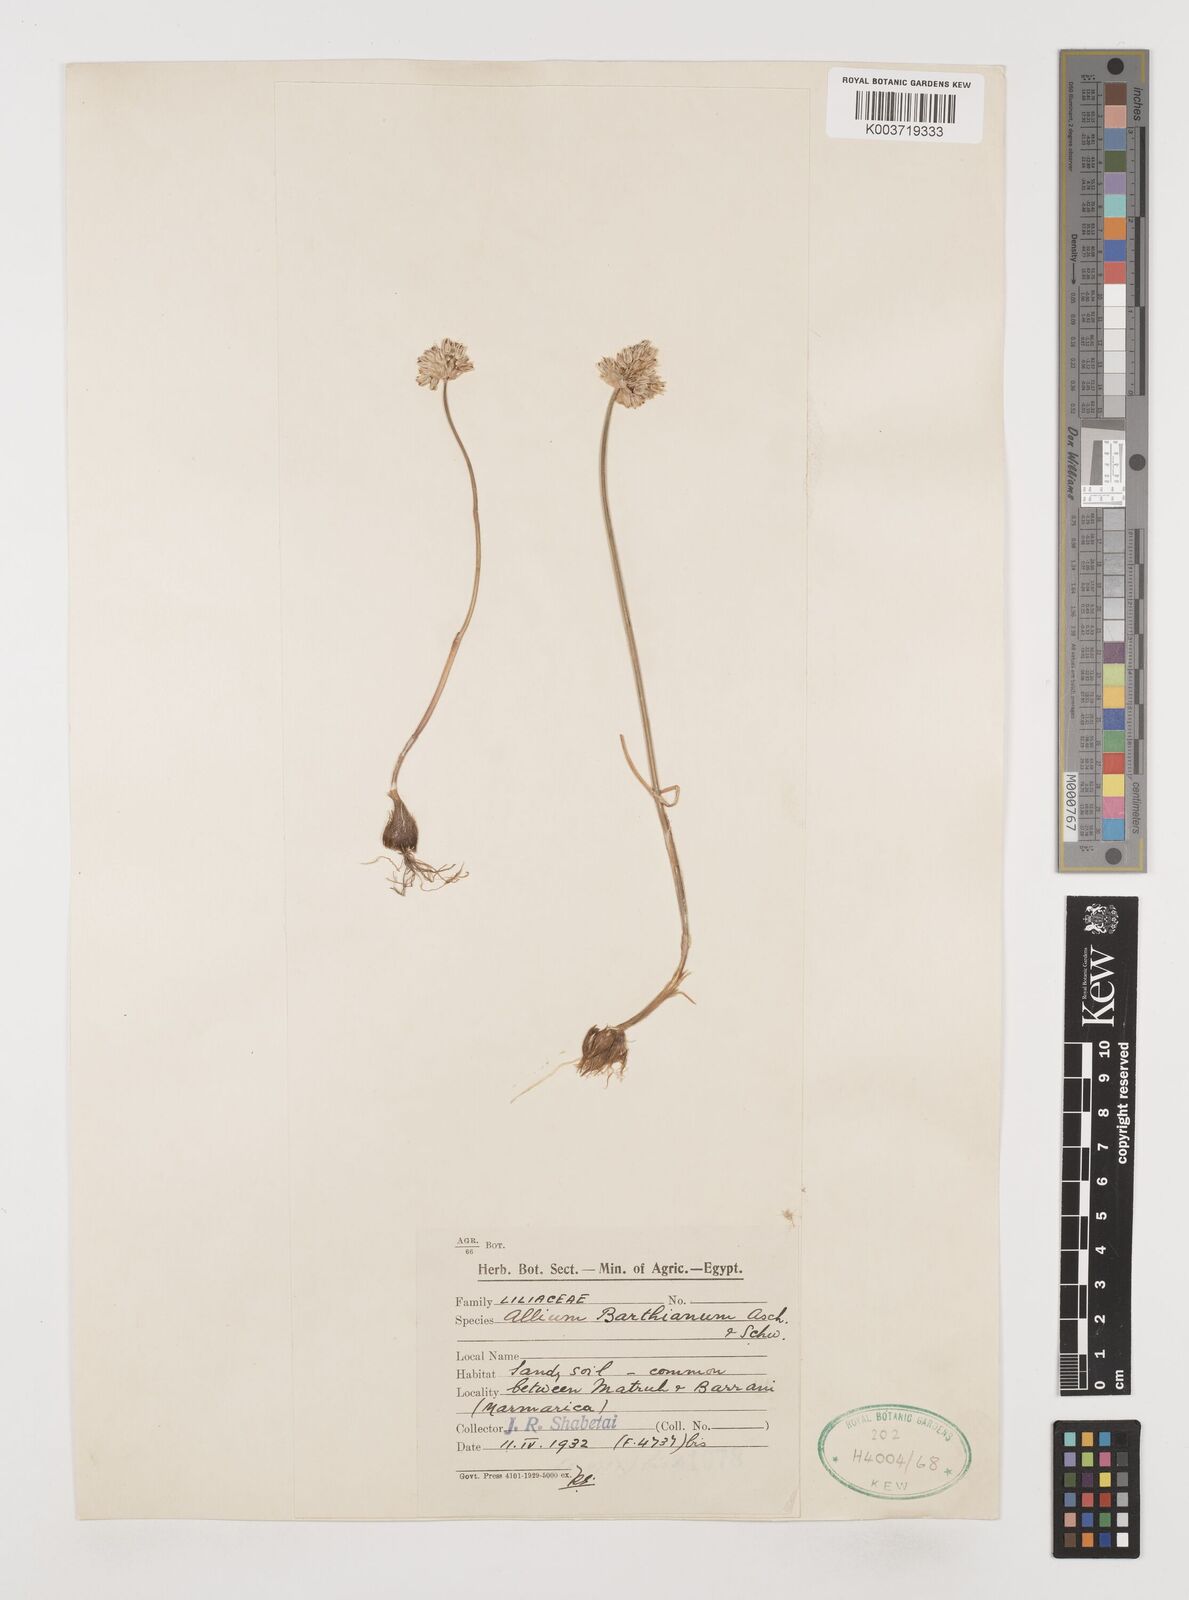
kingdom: Plantae
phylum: Tracheophyta
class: Liliopsida
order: Asparagales
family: Amaryllidaceae
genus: Allium
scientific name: Allium barthianum
